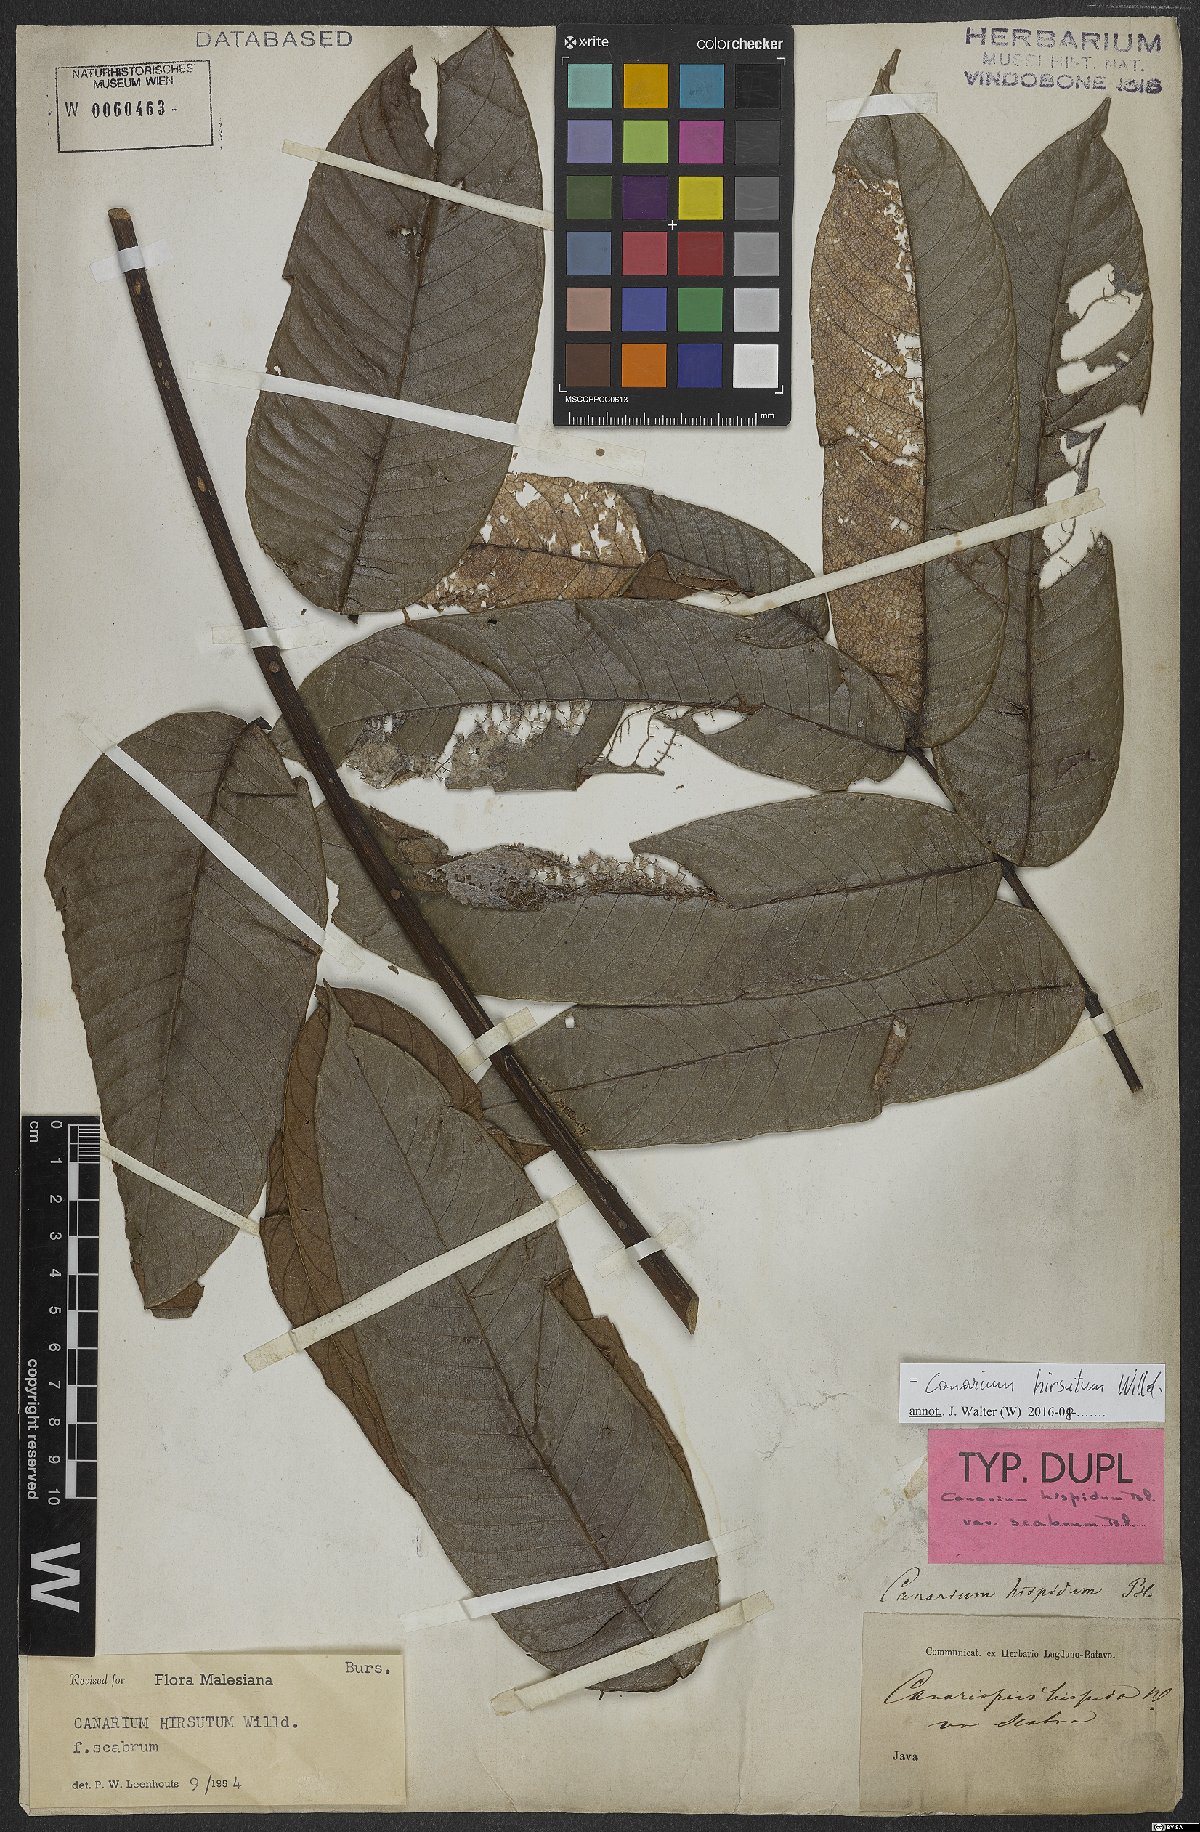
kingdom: Plantae
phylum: Tracheophyta
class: Magnoliopsida
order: Sapindales
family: Burseraceae
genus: Canarium
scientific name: Canarium hirsutum
